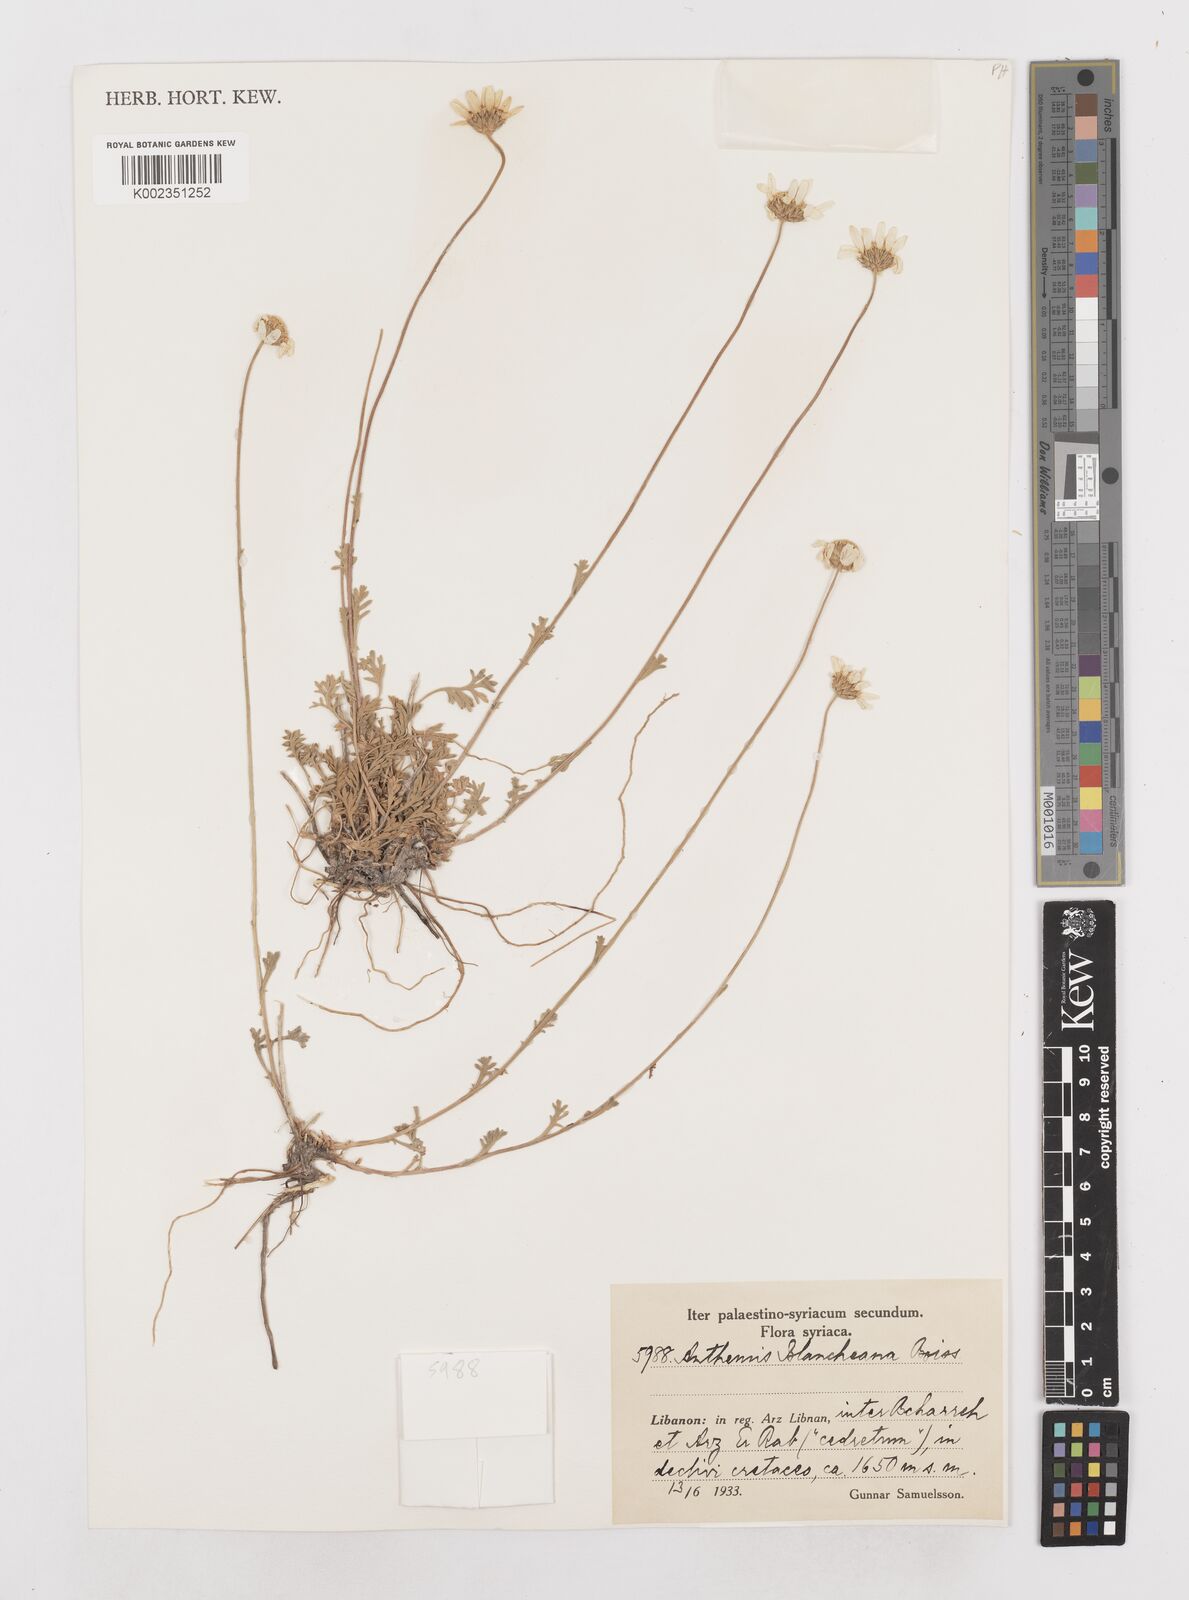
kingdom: Plantae
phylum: Tracheophyta
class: Magnoliopsida
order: Asterales
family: Asteraceae
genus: Anthemis
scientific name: Anthemis cretica
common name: Mountain dog-daisy
